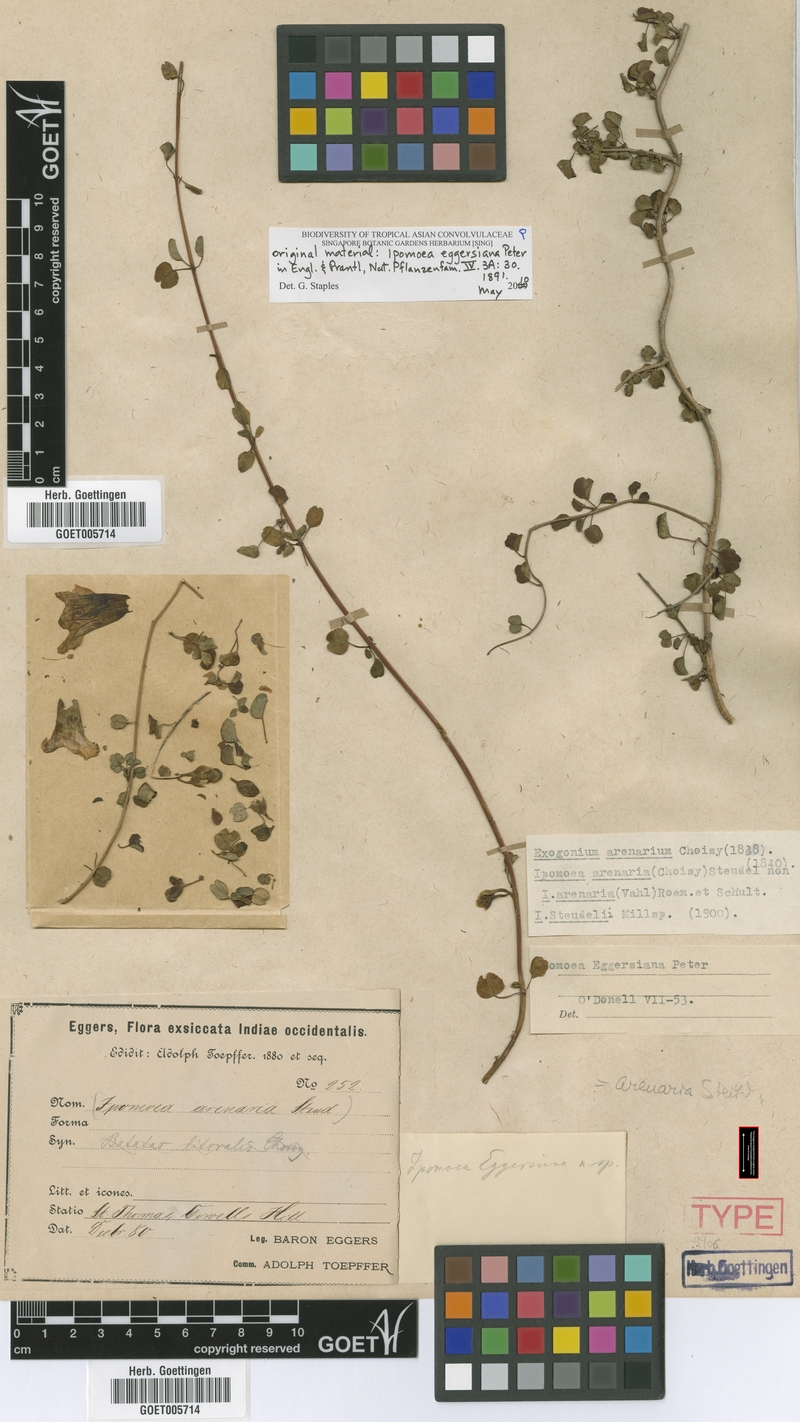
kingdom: Plantae
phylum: Tracheophyta
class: Magnoliopsida
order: Solanales
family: Convolvulaceae
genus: Ipomoea
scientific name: Ipomoea eggersiana
